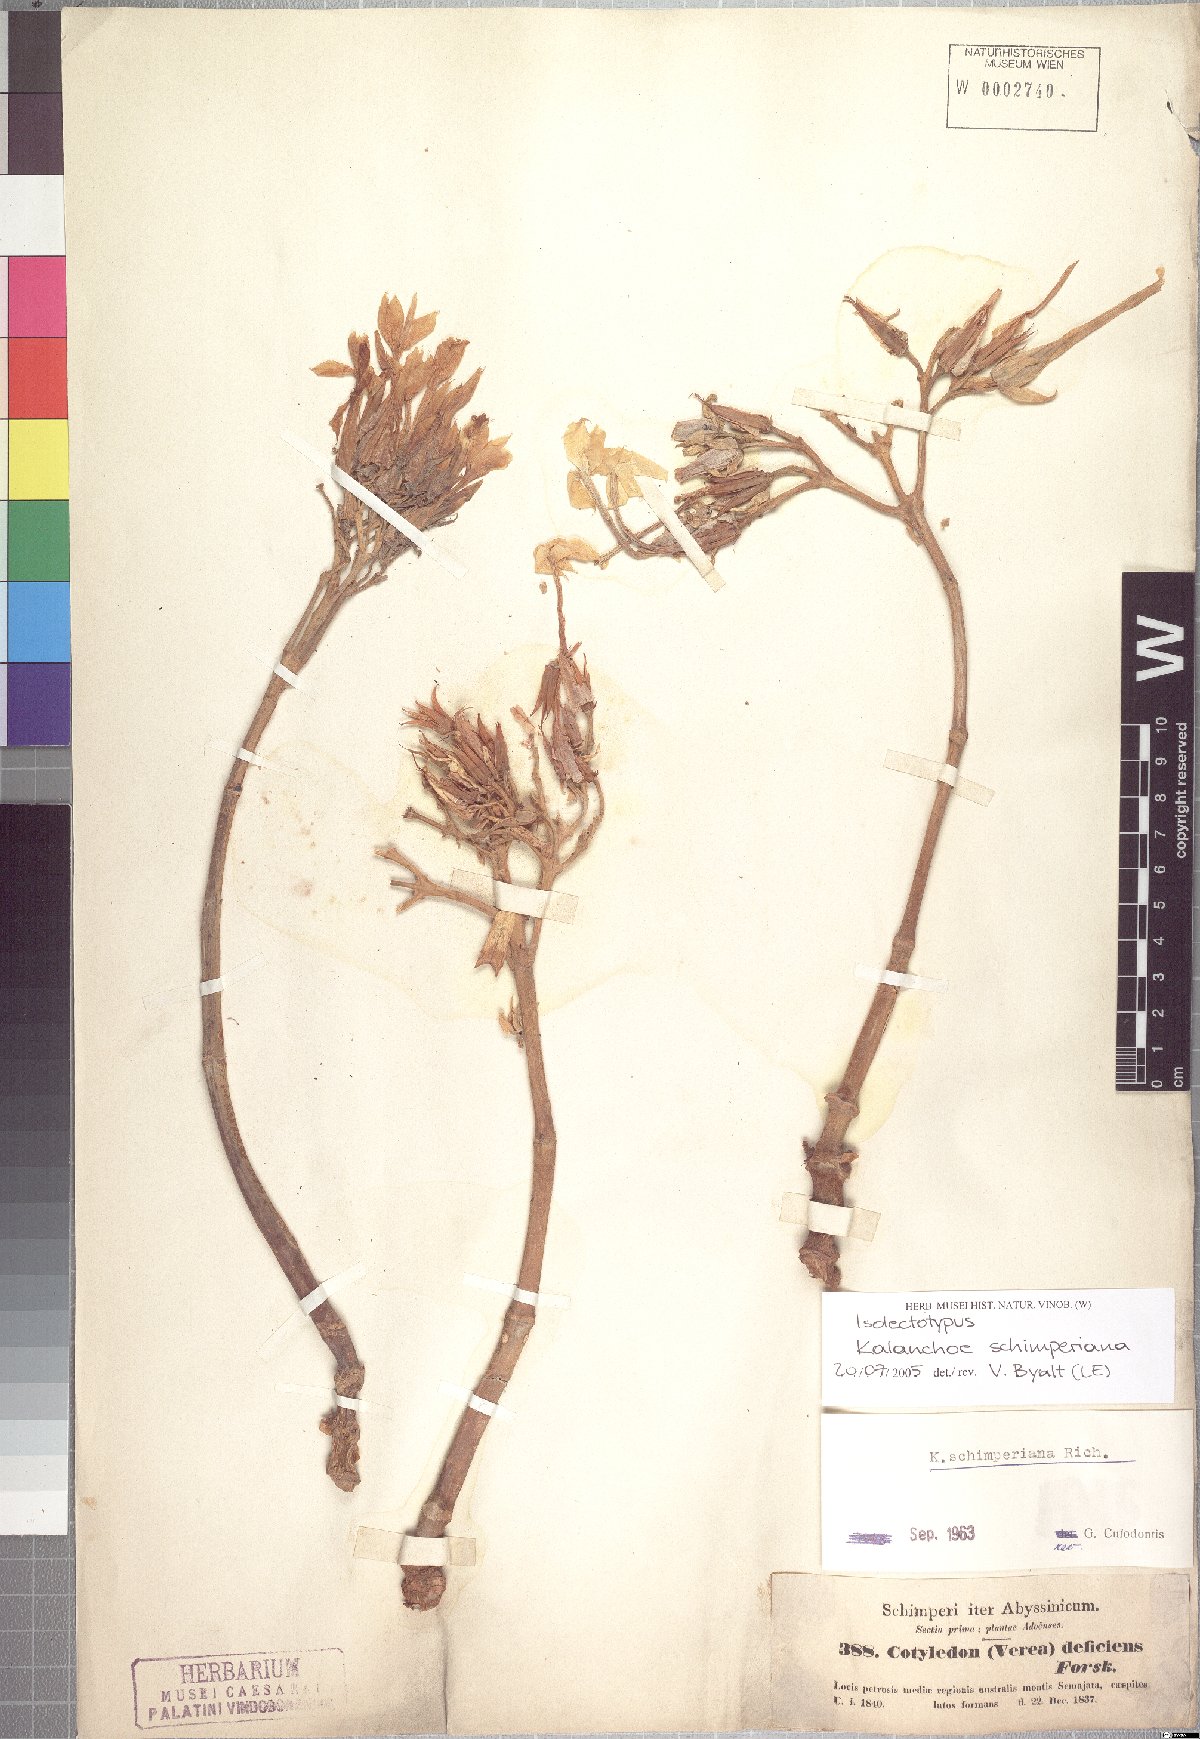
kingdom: Plantae
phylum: Tracheophyta
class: Magnoliopsida
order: Saxifragales
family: Crassulaceae
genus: Kalanchoe
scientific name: Kalanchoe schimperiana
